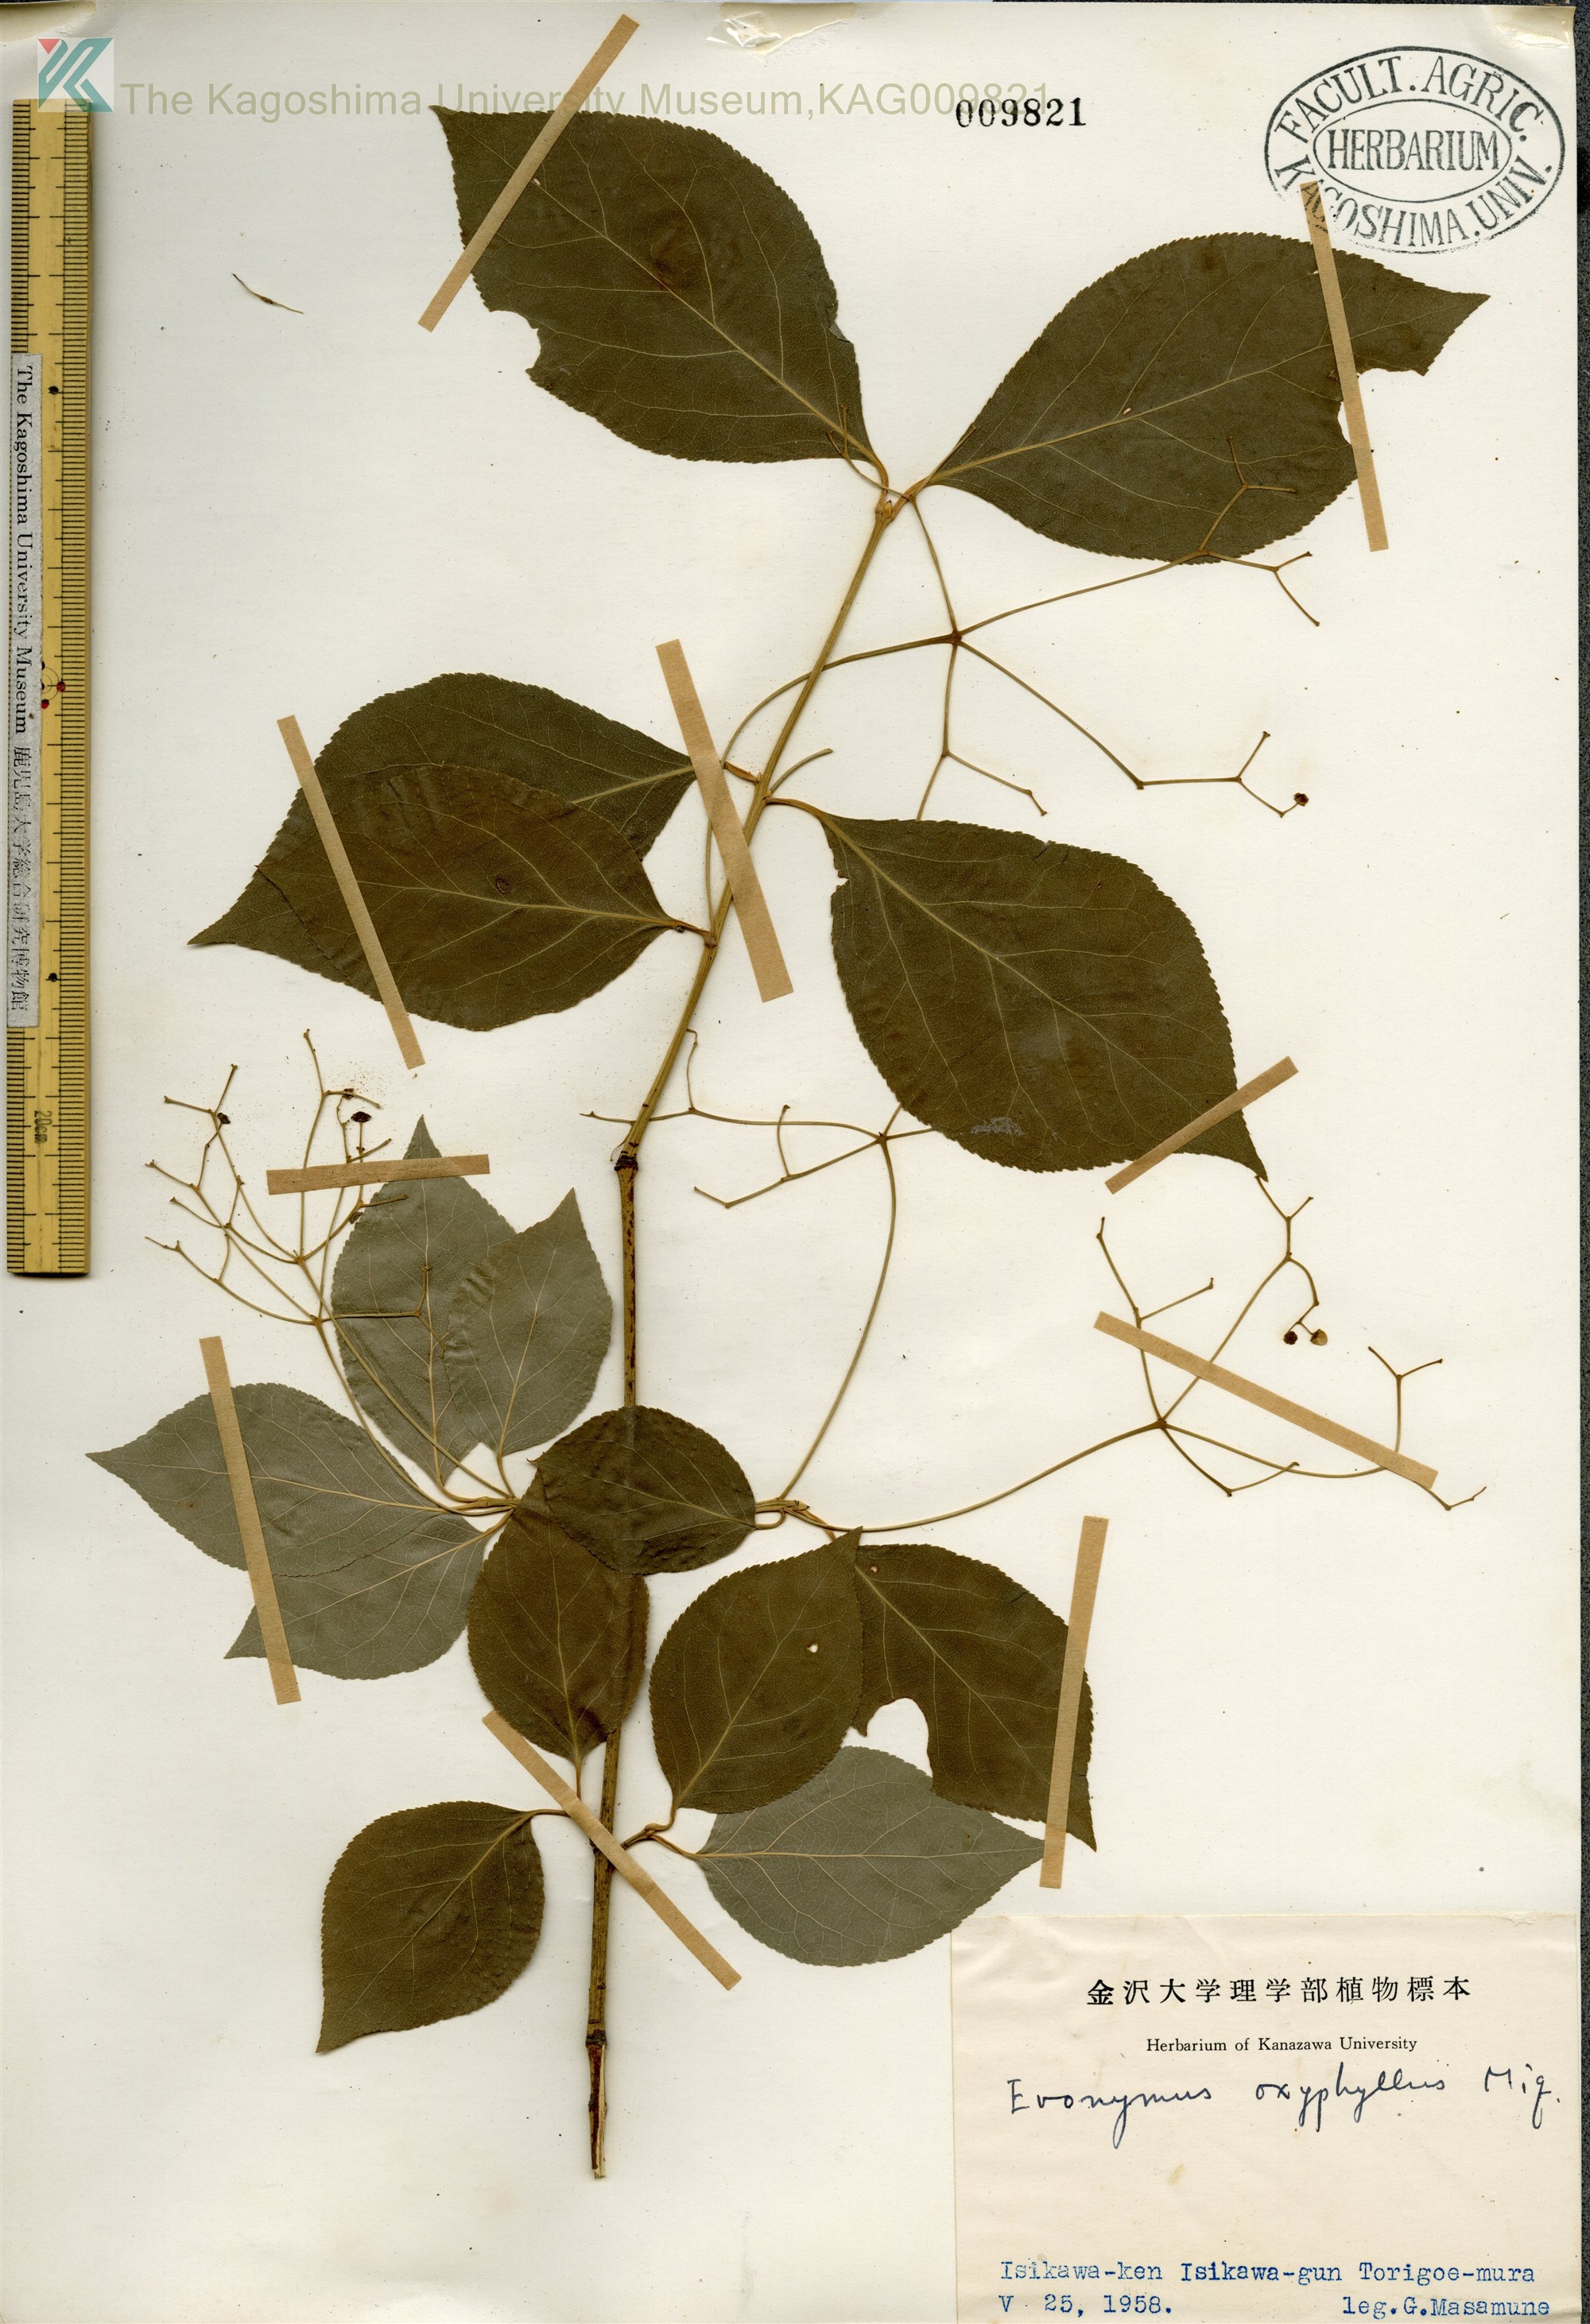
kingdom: Plantae
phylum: Tracheophyta
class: Magnoliopsida
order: Celastrales
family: Celastraceae
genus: Euonymus
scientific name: Euonymus oxyphyllus
